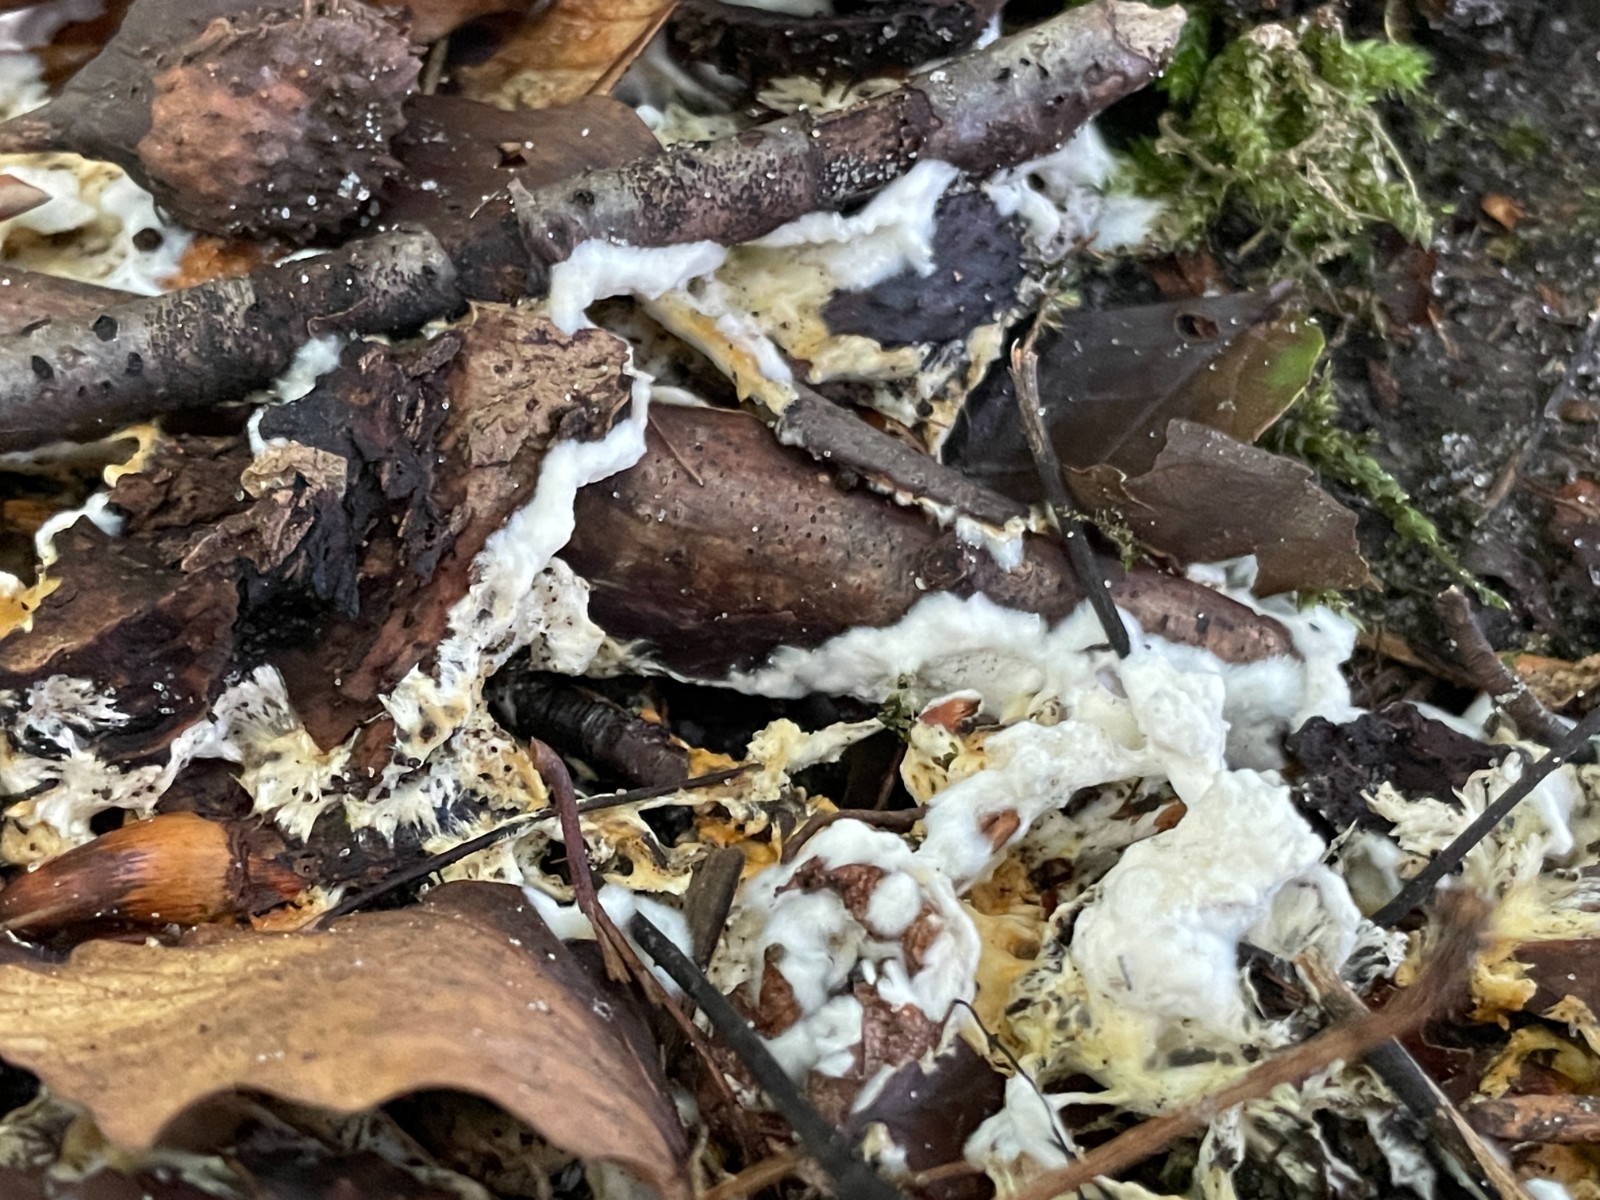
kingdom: Fungi
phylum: Basidiomycota
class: Agaricomycetes
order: Polyporales
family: Steccherinaceae
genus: Loweomyces
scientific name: Loweomyces wynneae
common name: krybende blødporesvamp
